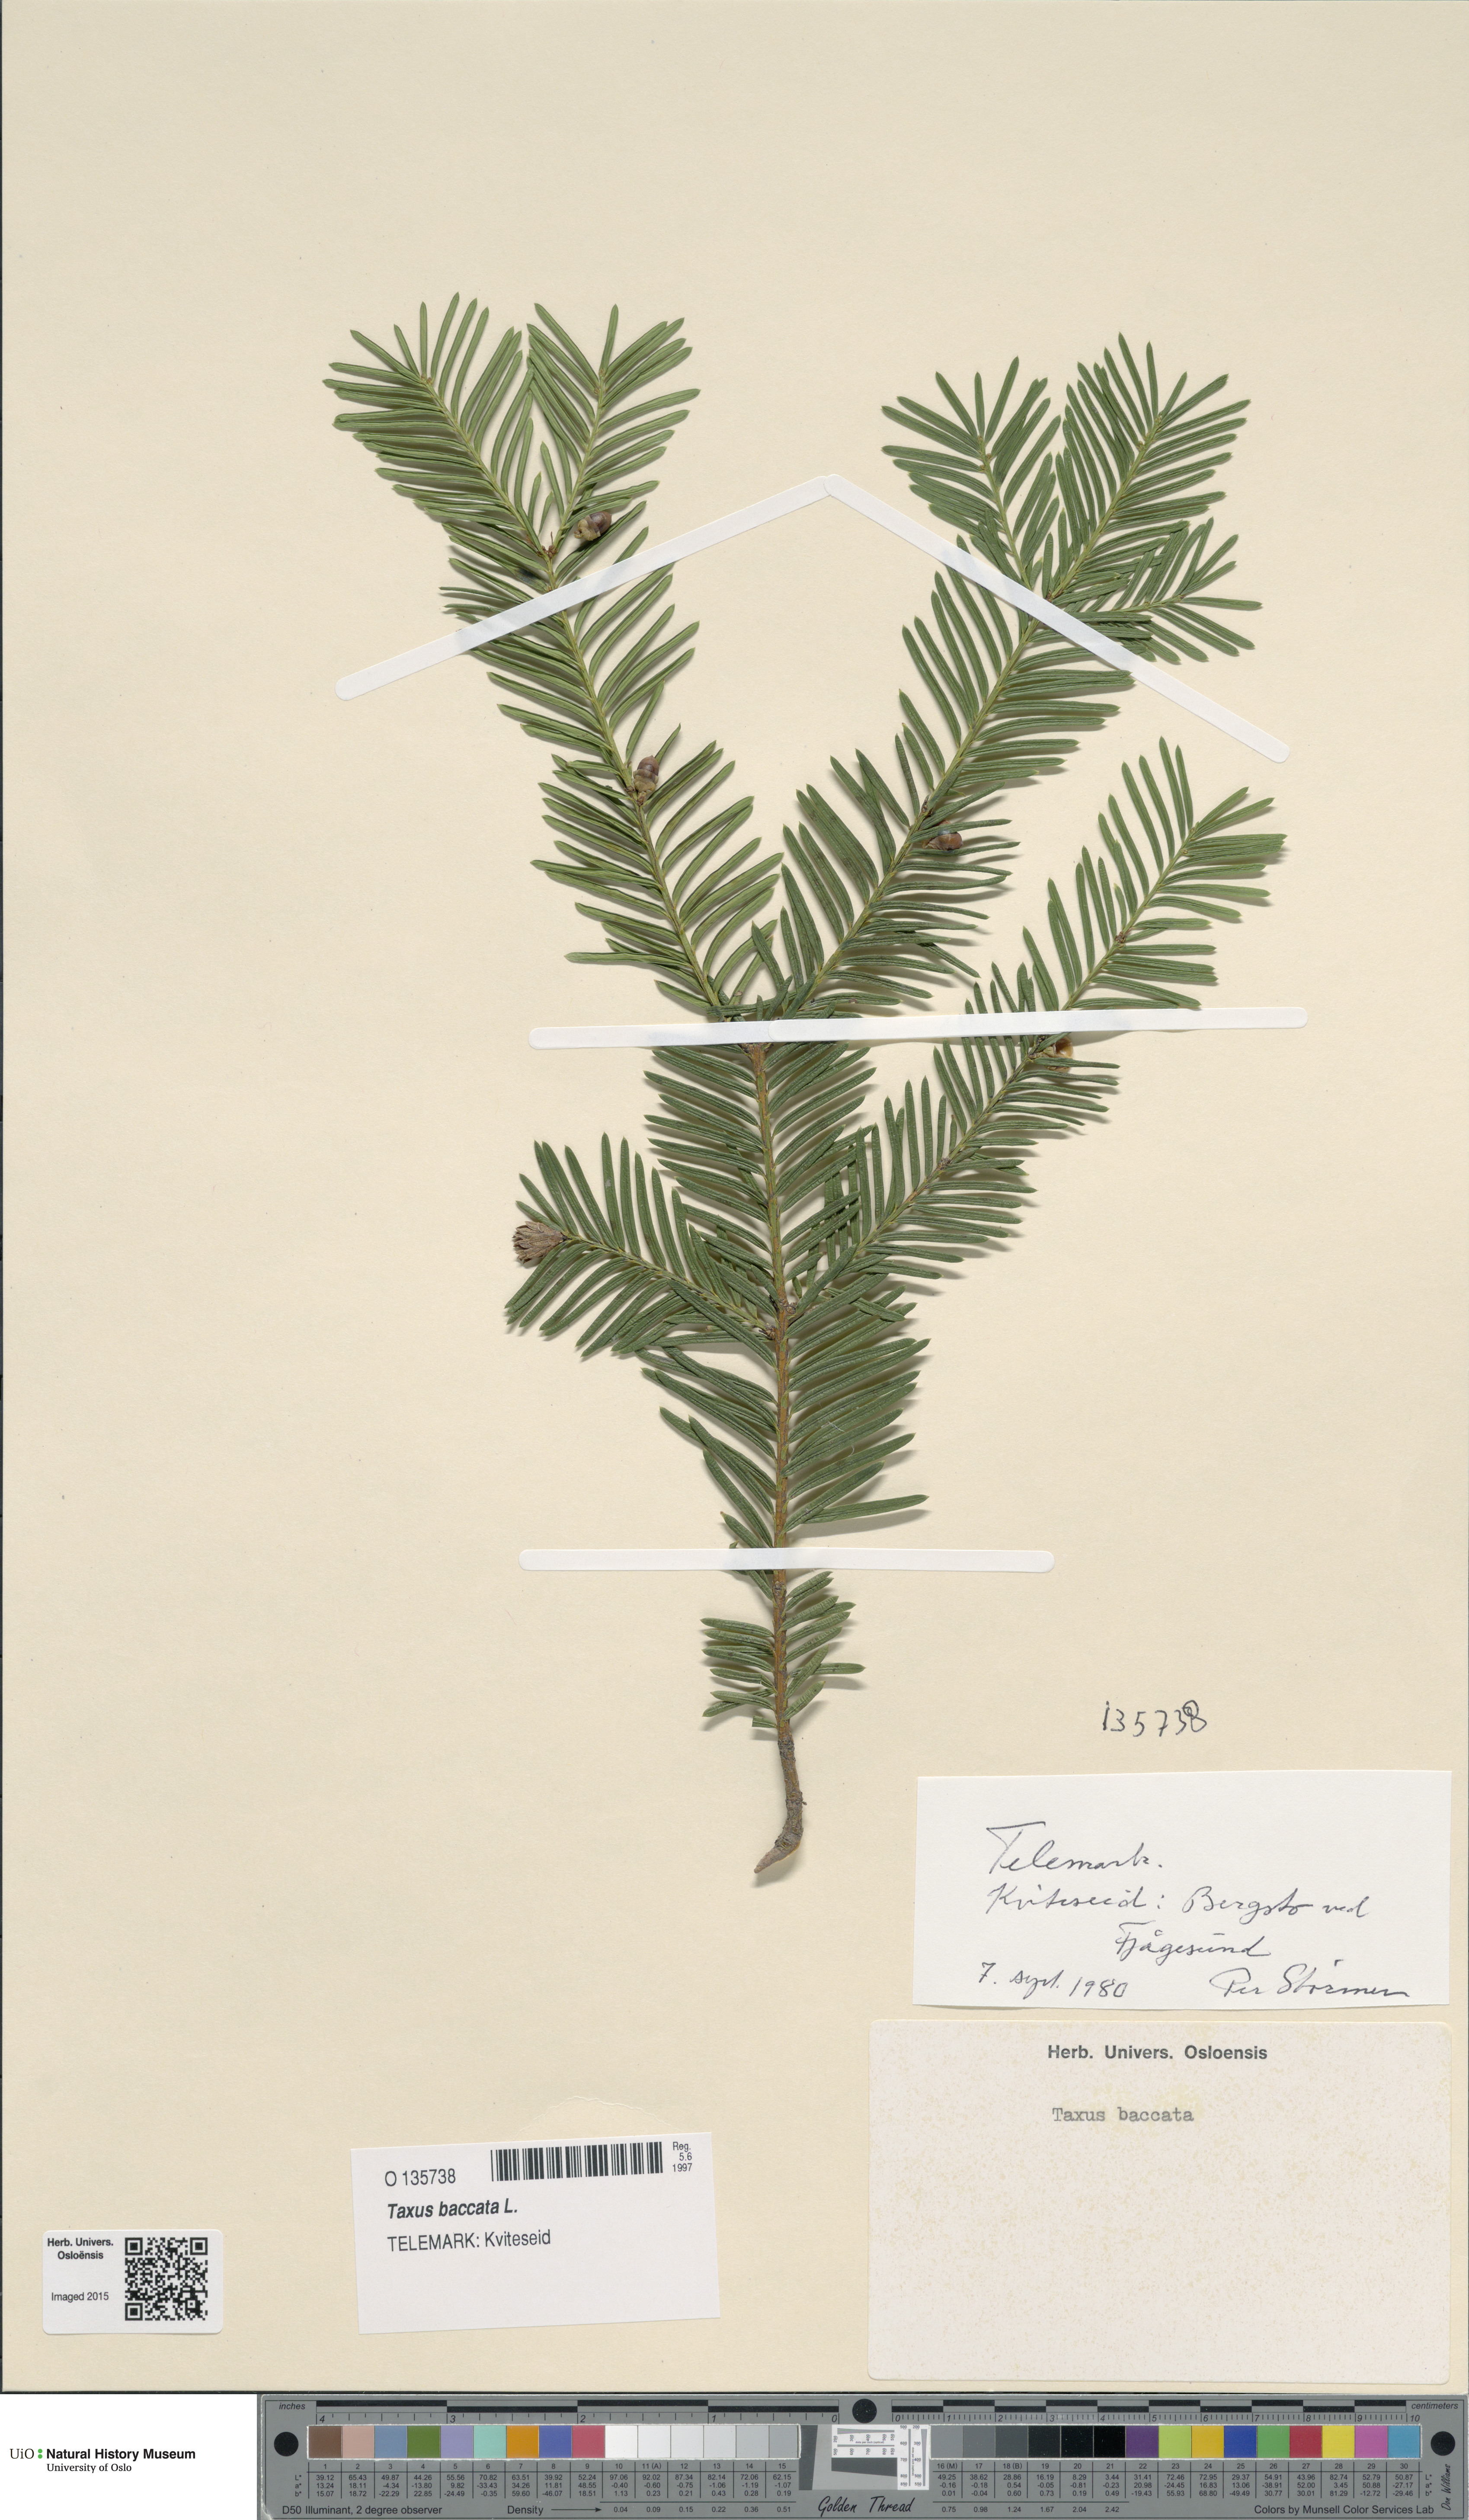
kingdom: Plantae
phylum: Tracheophyta
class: Pinopsida
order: Pinales
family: Taxaceae
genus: Taxus
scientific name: Taxus baccata
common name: Yew
